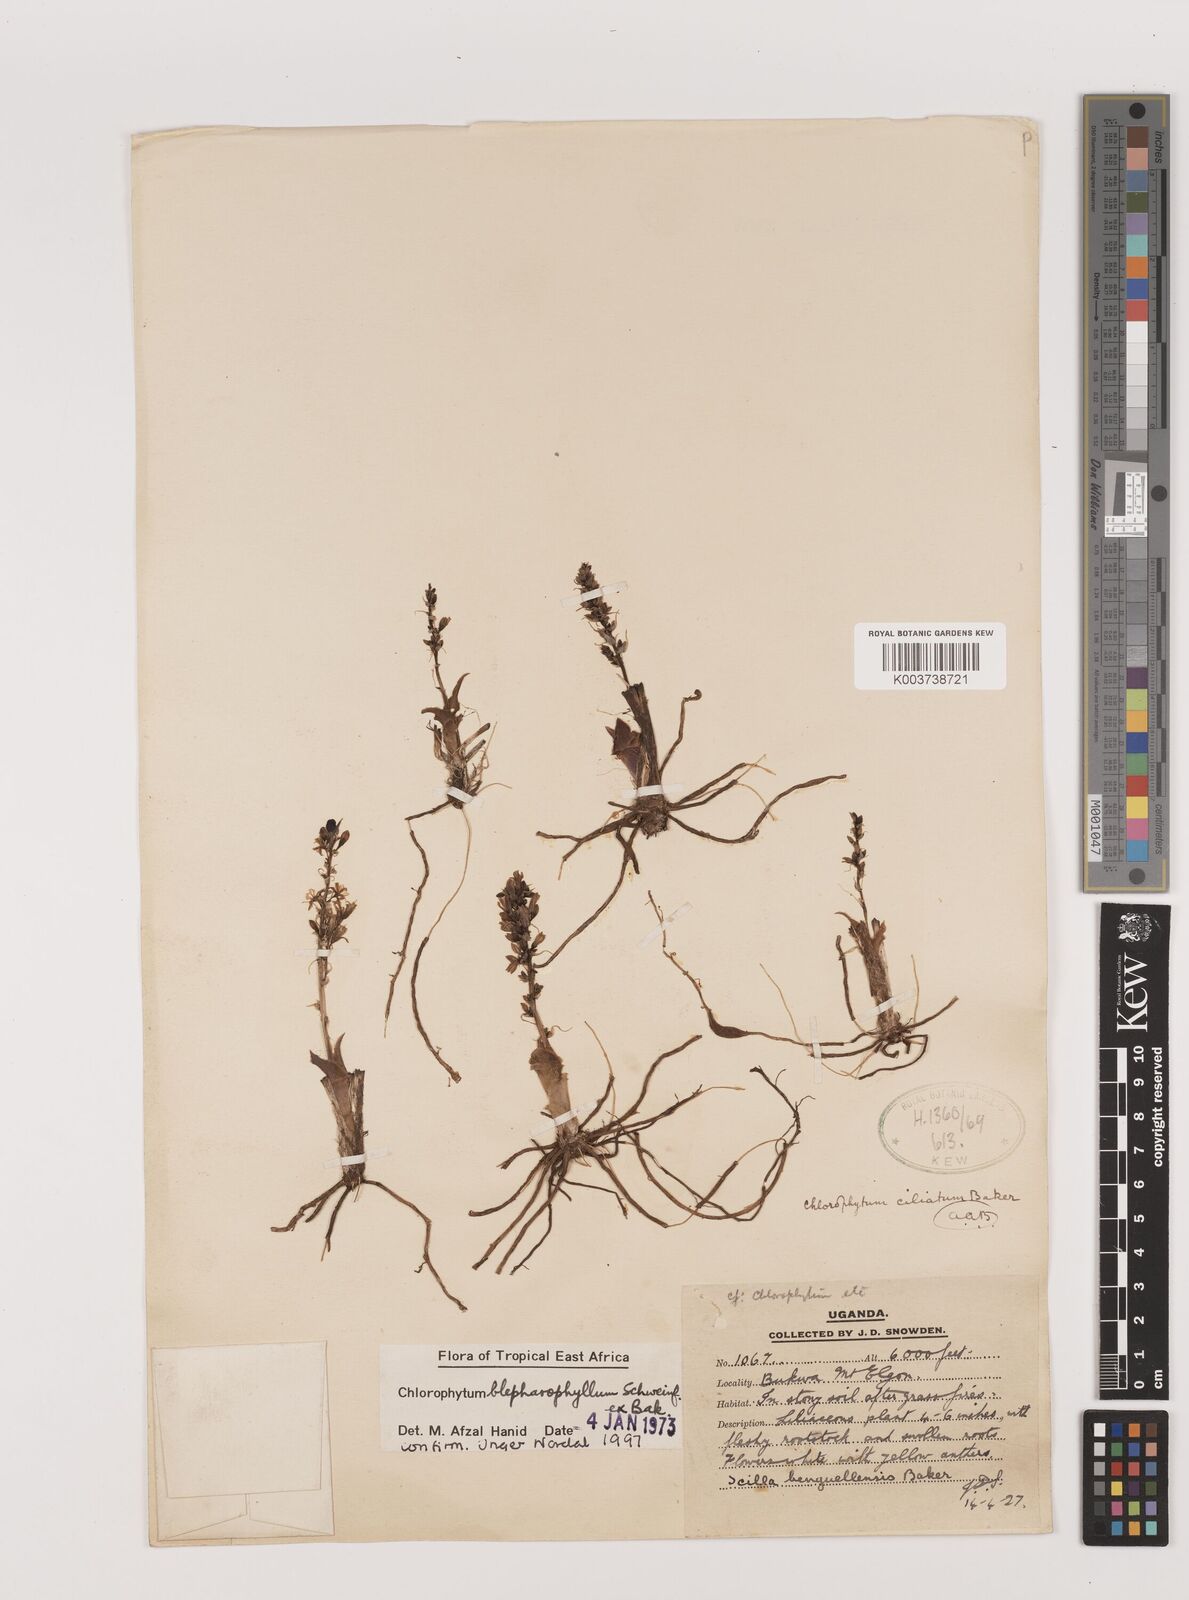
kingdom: Plantae
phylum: Tracheophyta
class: Liliopsida
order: Asparagales
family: Asparagaceae
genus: Chlorophytum
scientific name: Chlorophytum blepharophyllum
